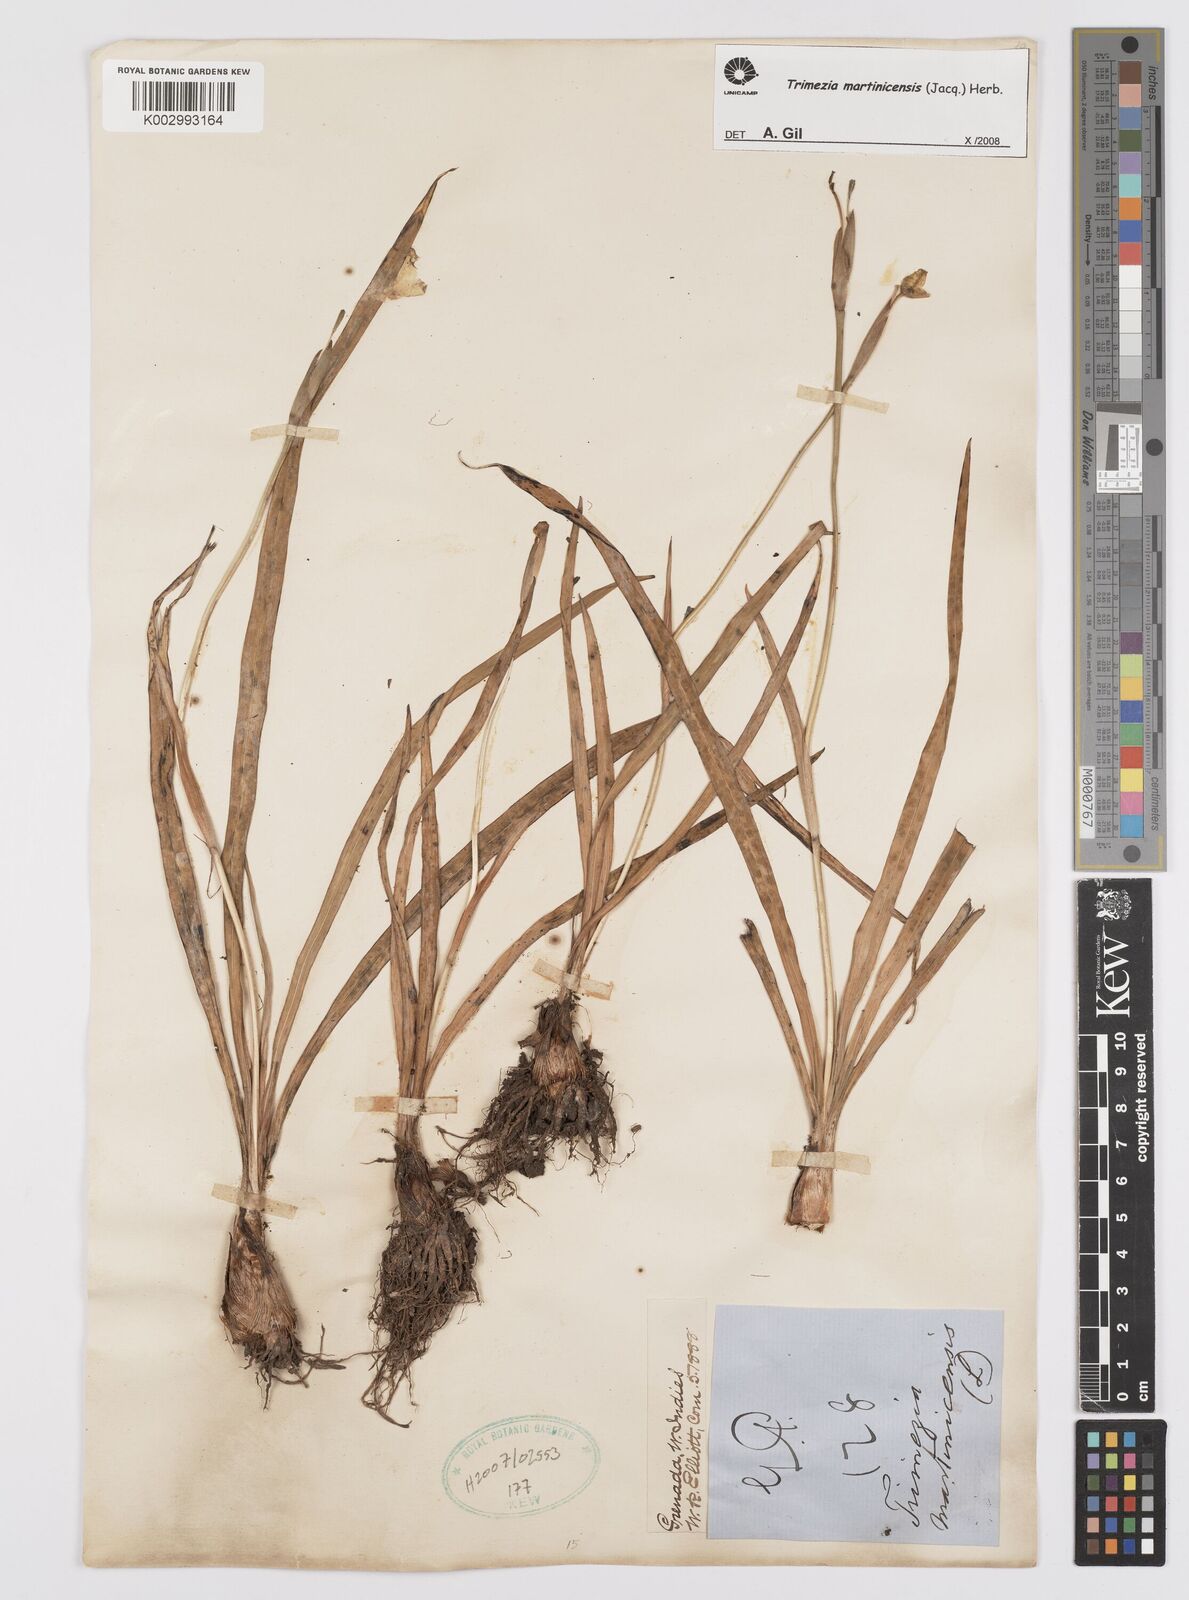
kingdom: Plantae
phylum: Tracheophyta
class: Liliopsida
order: Asparagales
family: Iridaceae
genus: Trimezia
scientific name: Trimezia martinicensis
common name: Martinique trimezia
